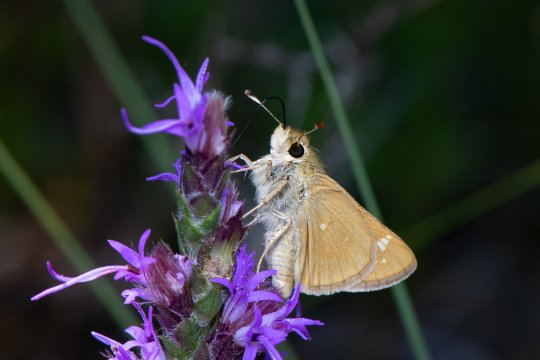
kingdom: Animalia
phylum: Arthropoda
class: Insecta
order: Lepidoptera
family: Hesperiidae
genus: Hesperia
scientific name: Hesperia leonardus
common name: Leonard's Skipper
